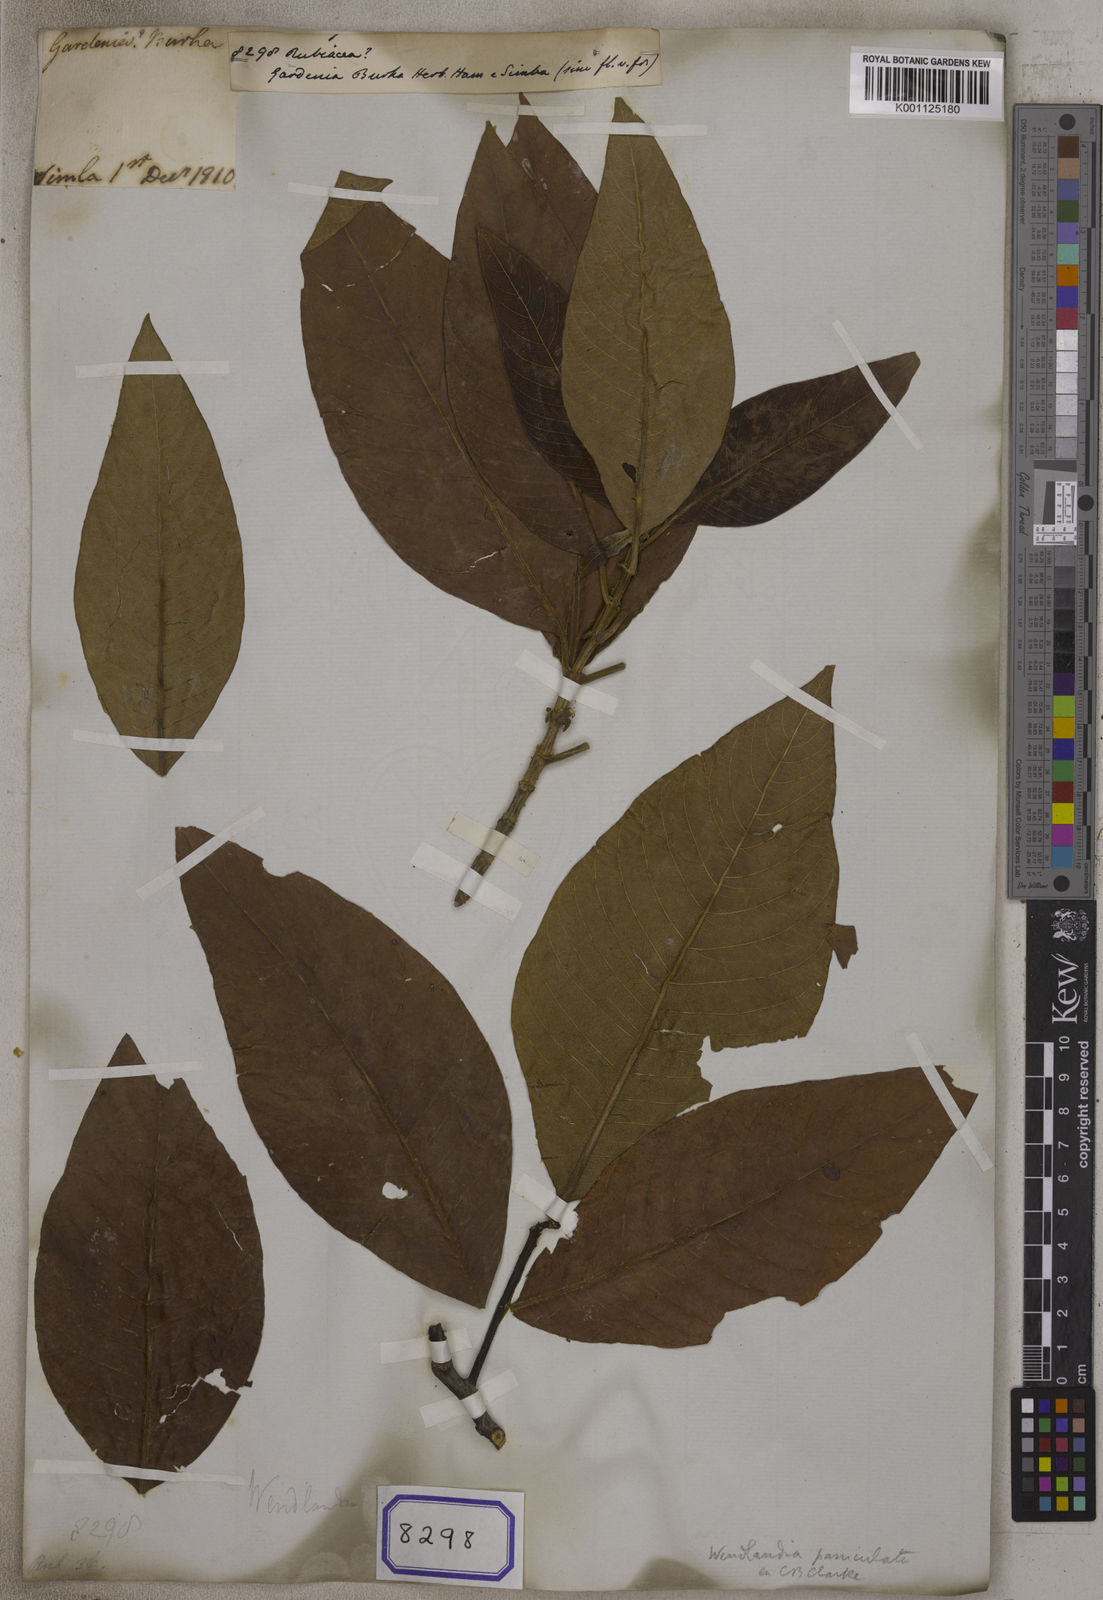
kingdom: Plantae
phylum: Tracheophyta
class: Magnoliopsida
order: Gentianales
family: Rubiaceae
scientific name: Rubiaceae
